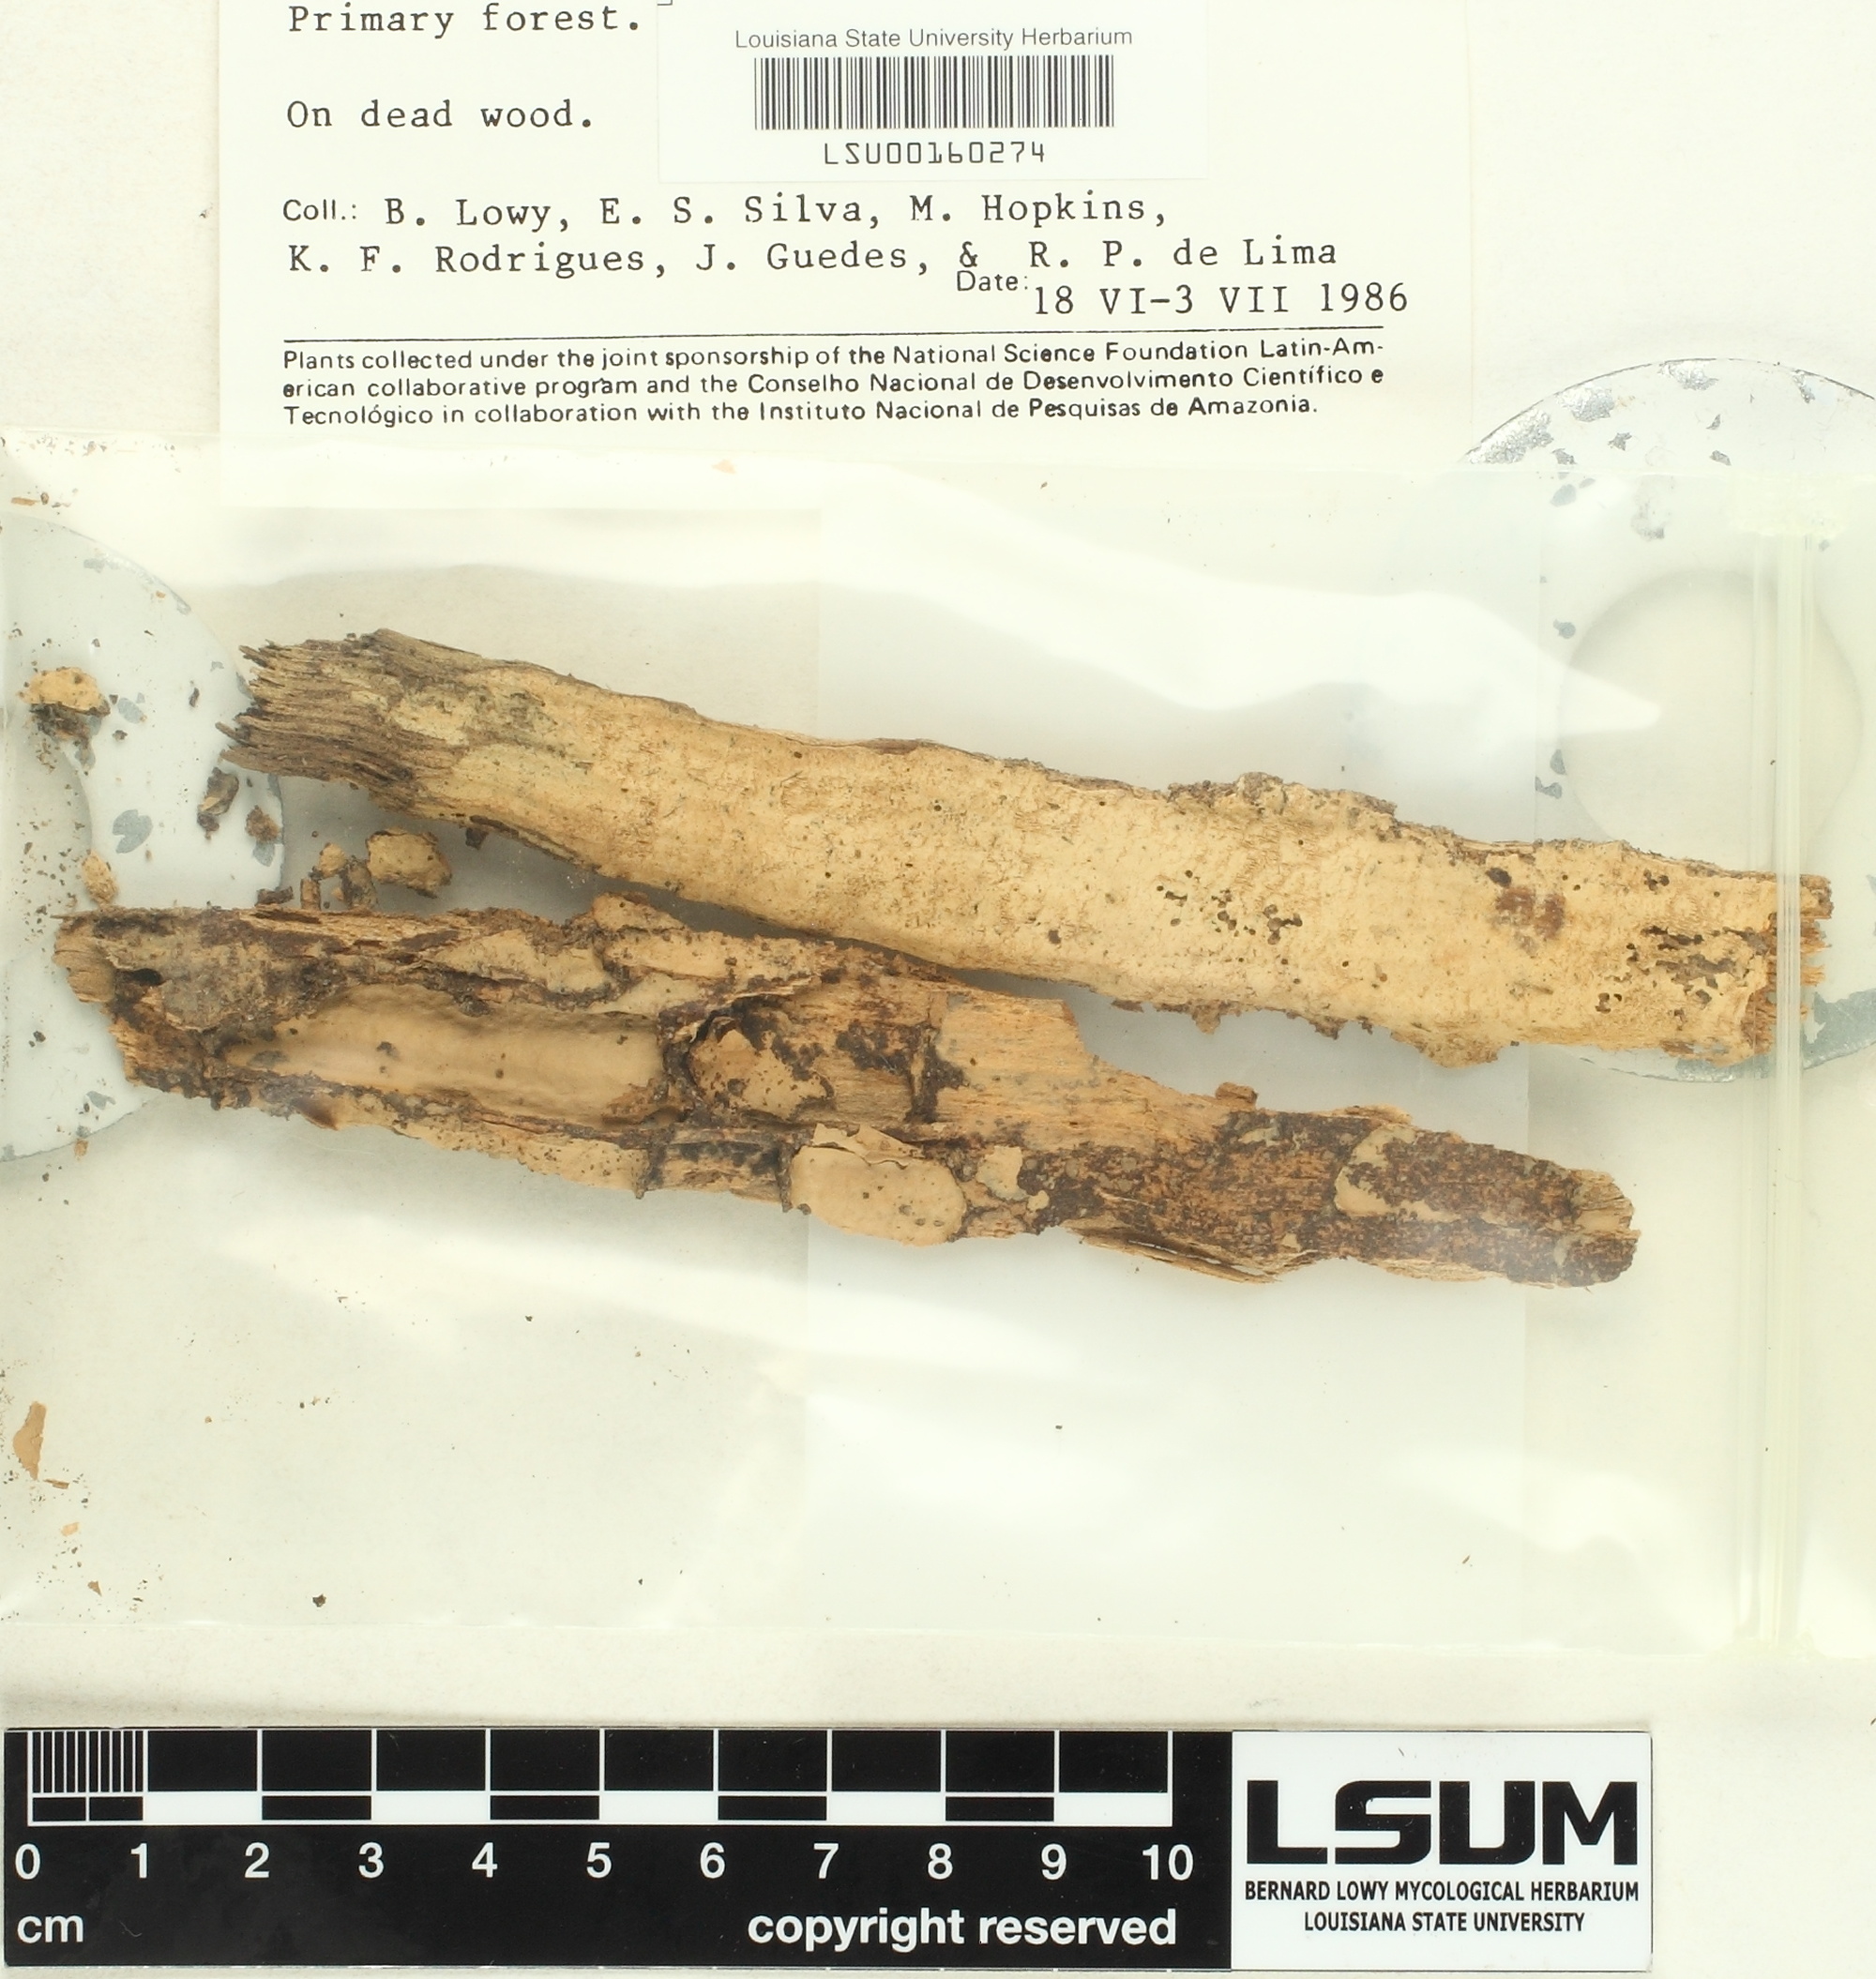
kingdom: Fungi
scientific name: Fungi
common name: Fungi
